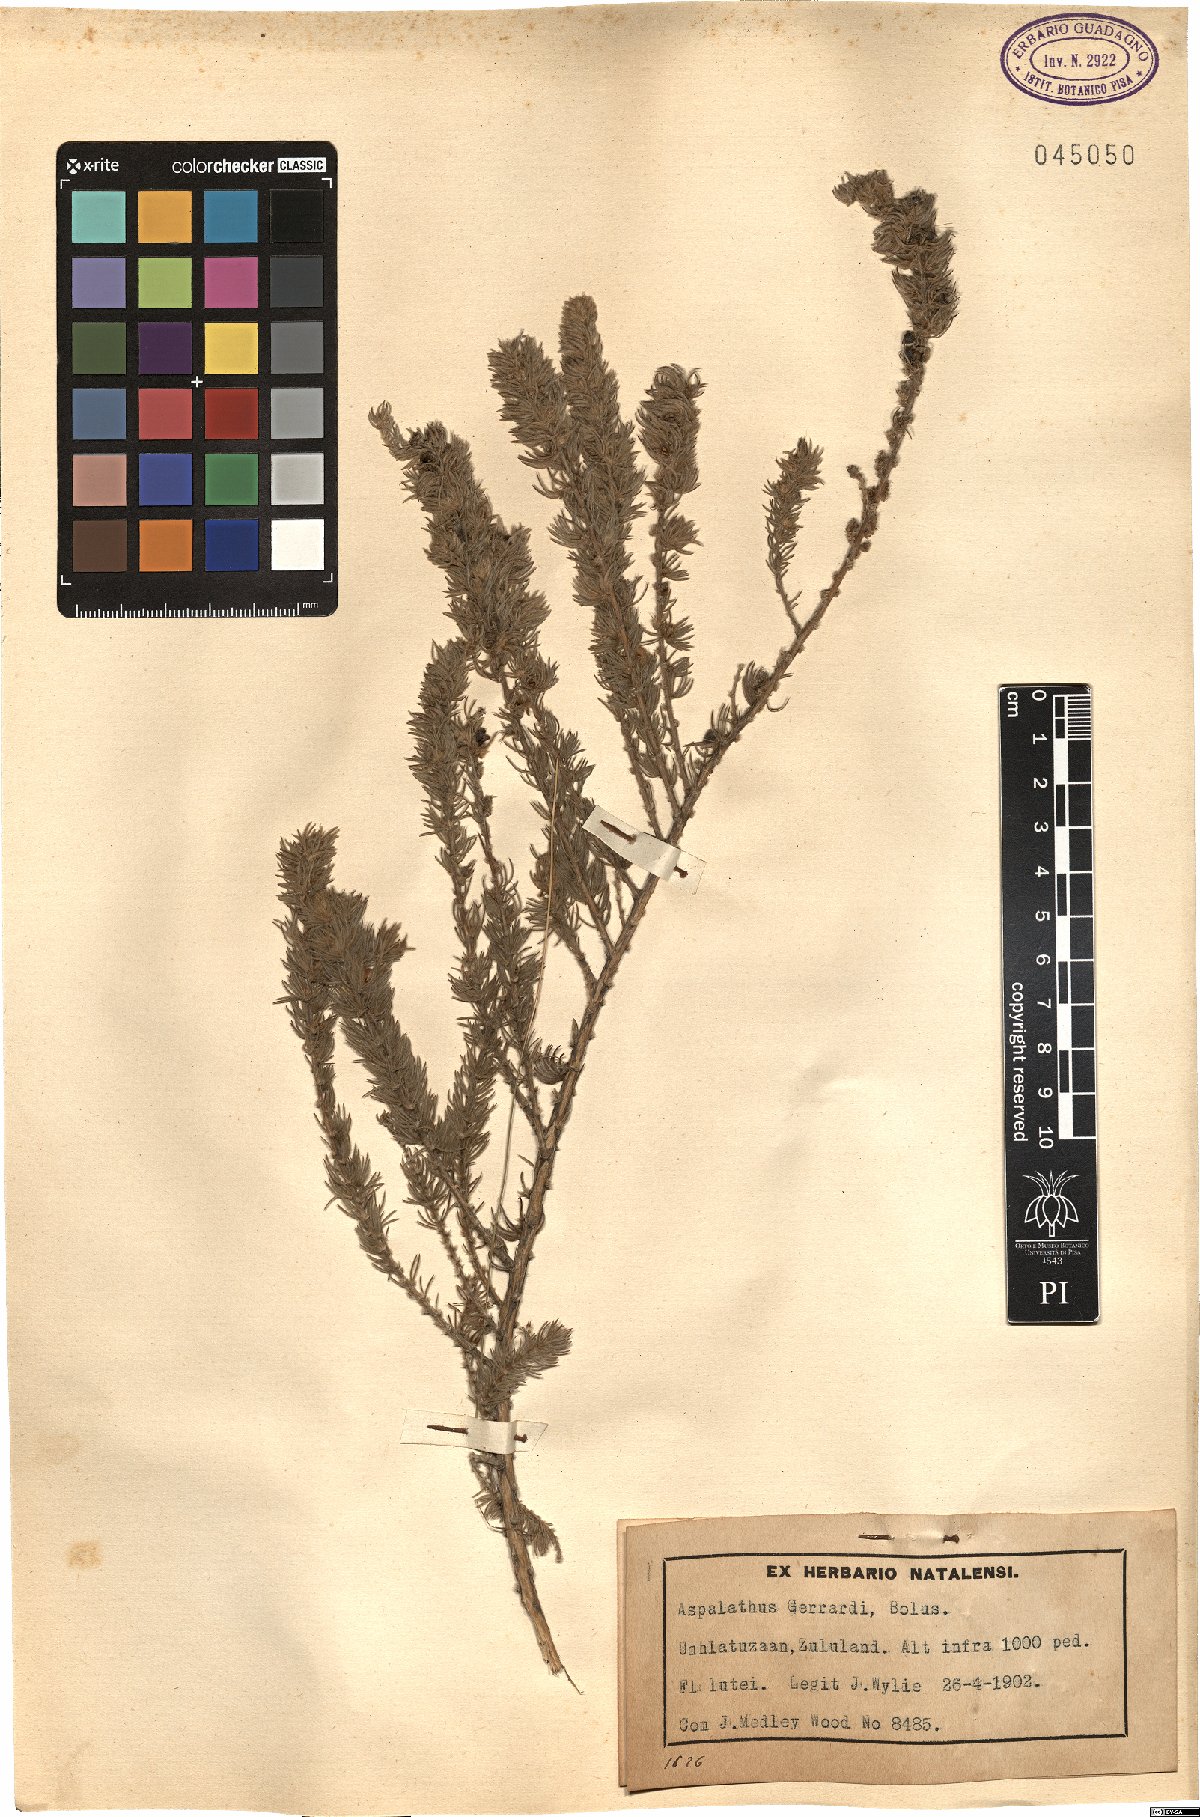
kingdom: Plantae
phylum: Tracheophyta
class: Magnoliopsida
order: Fabales
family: Fabaceae
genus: Aspalathus
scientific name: Aspalathus gerrardii
